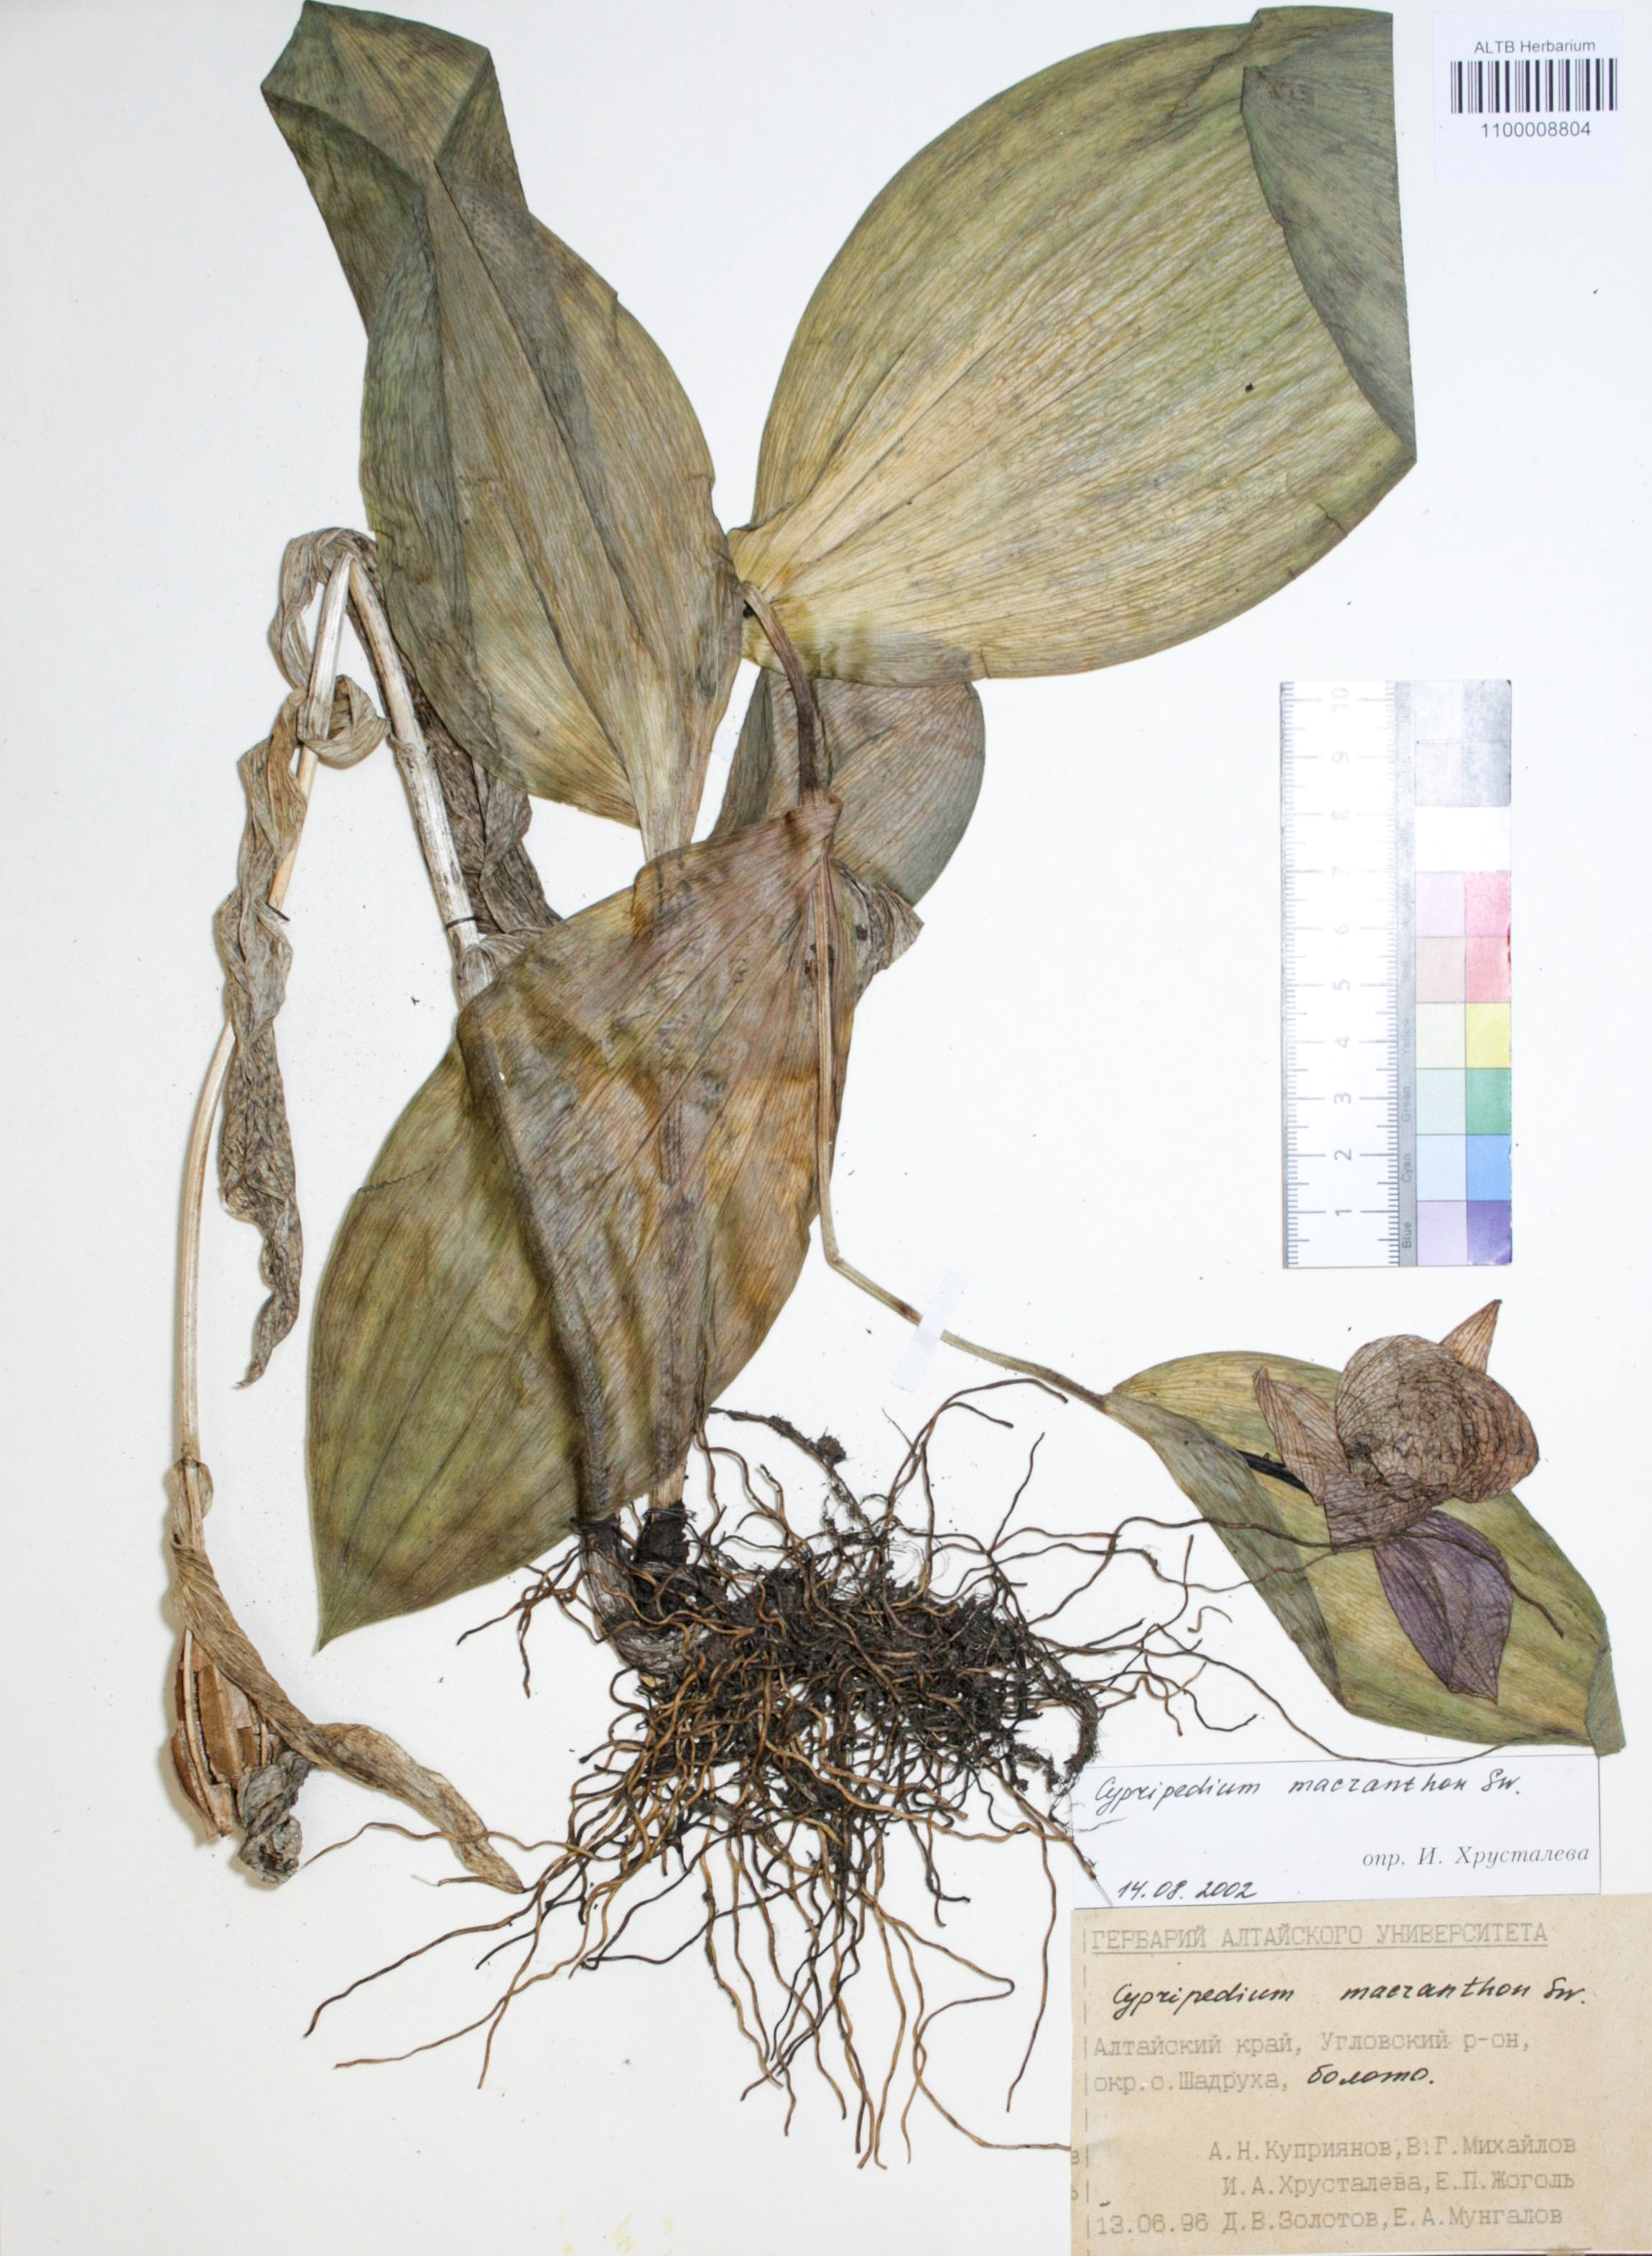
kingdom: Plantae
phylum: Tracheophyta
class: Liliopsida
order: Asparagales
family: Orchidaceae
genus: Cypripedium
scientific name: Cypripedium macranthon
